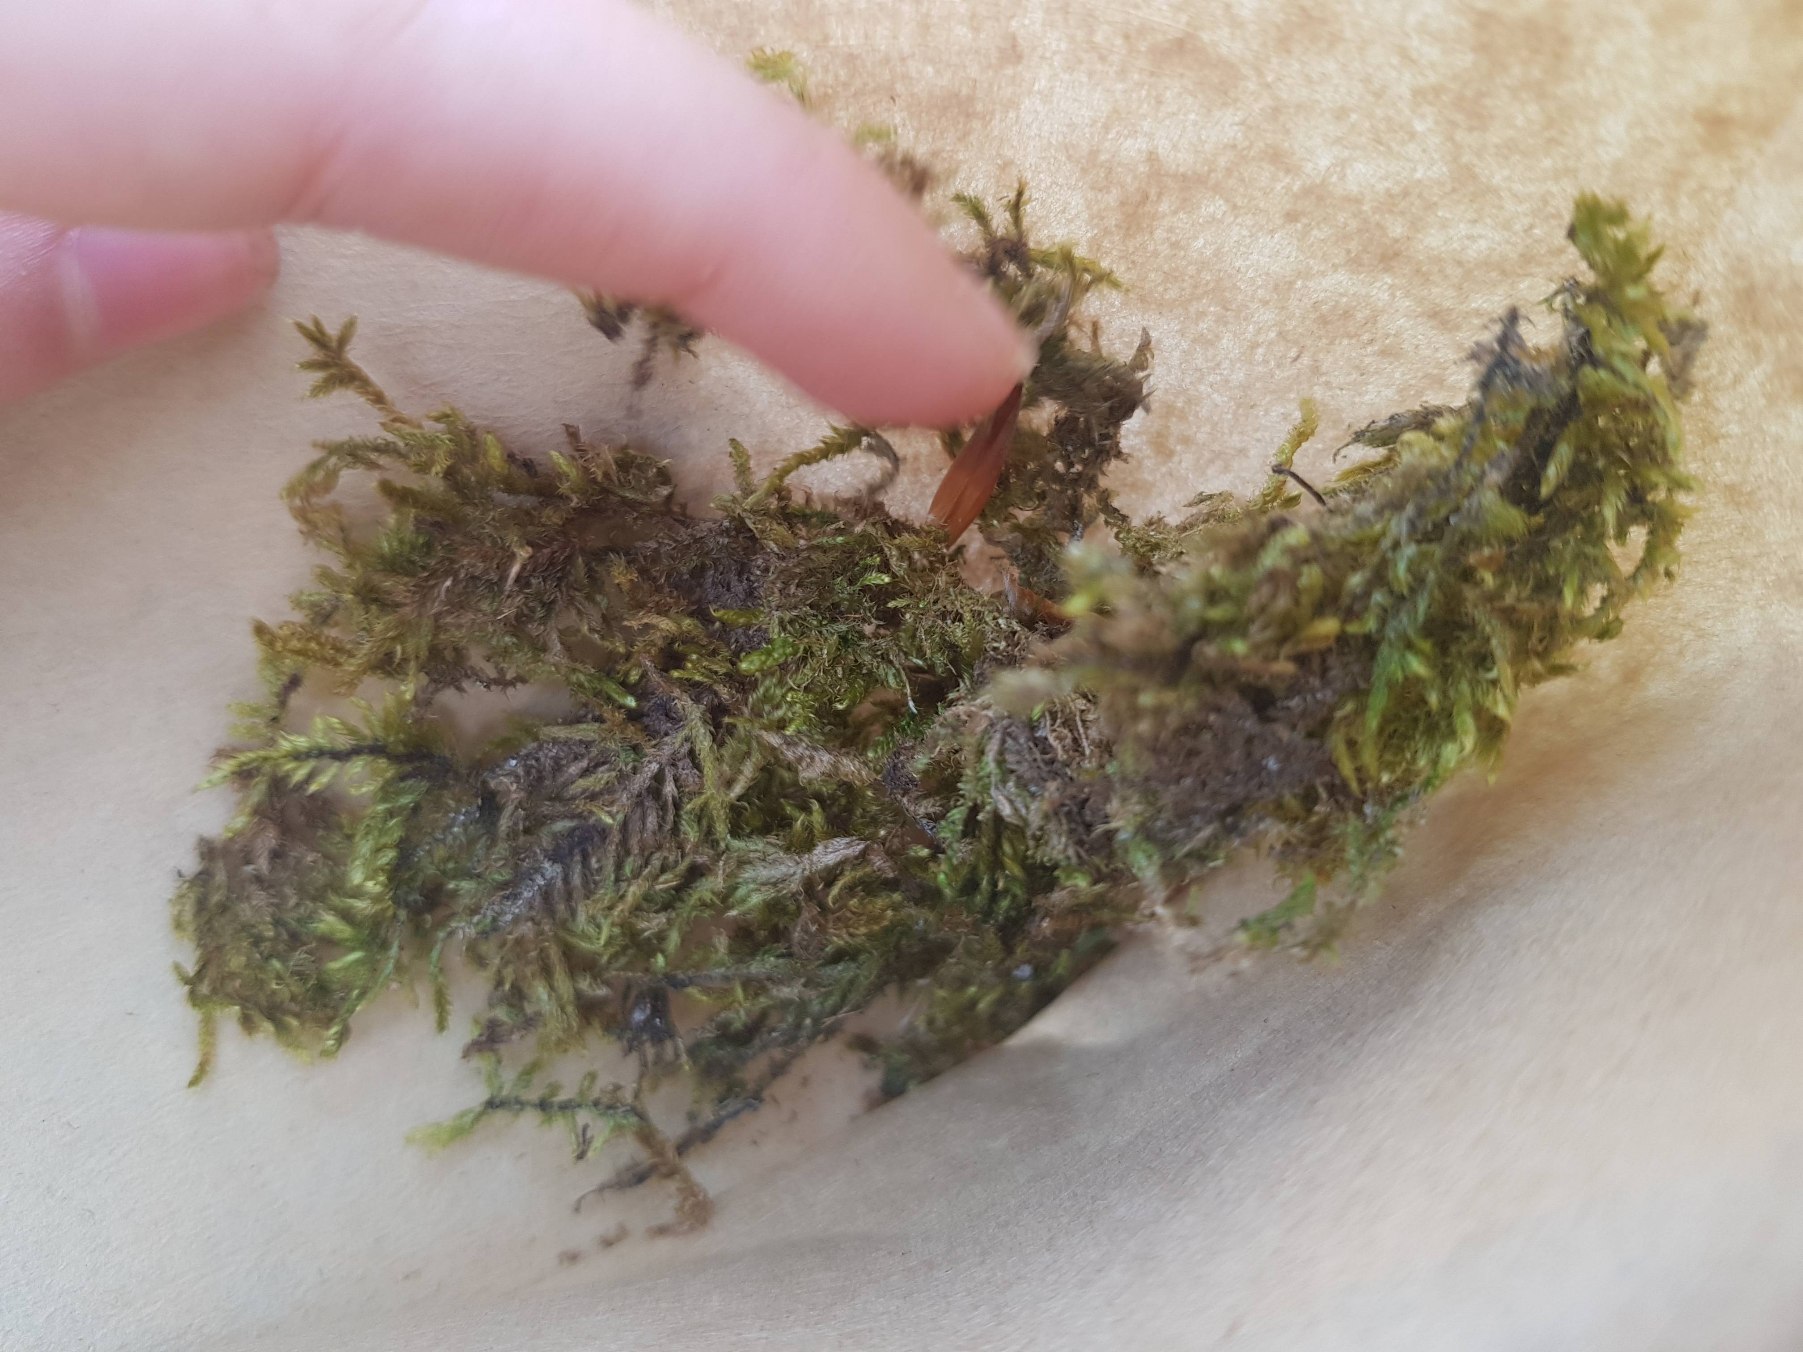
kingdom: Plantae
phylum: Bryophyta
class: Bryopsida
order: Hypnales
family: Hypnaceae
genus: Hypnum
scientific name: Hypnum
